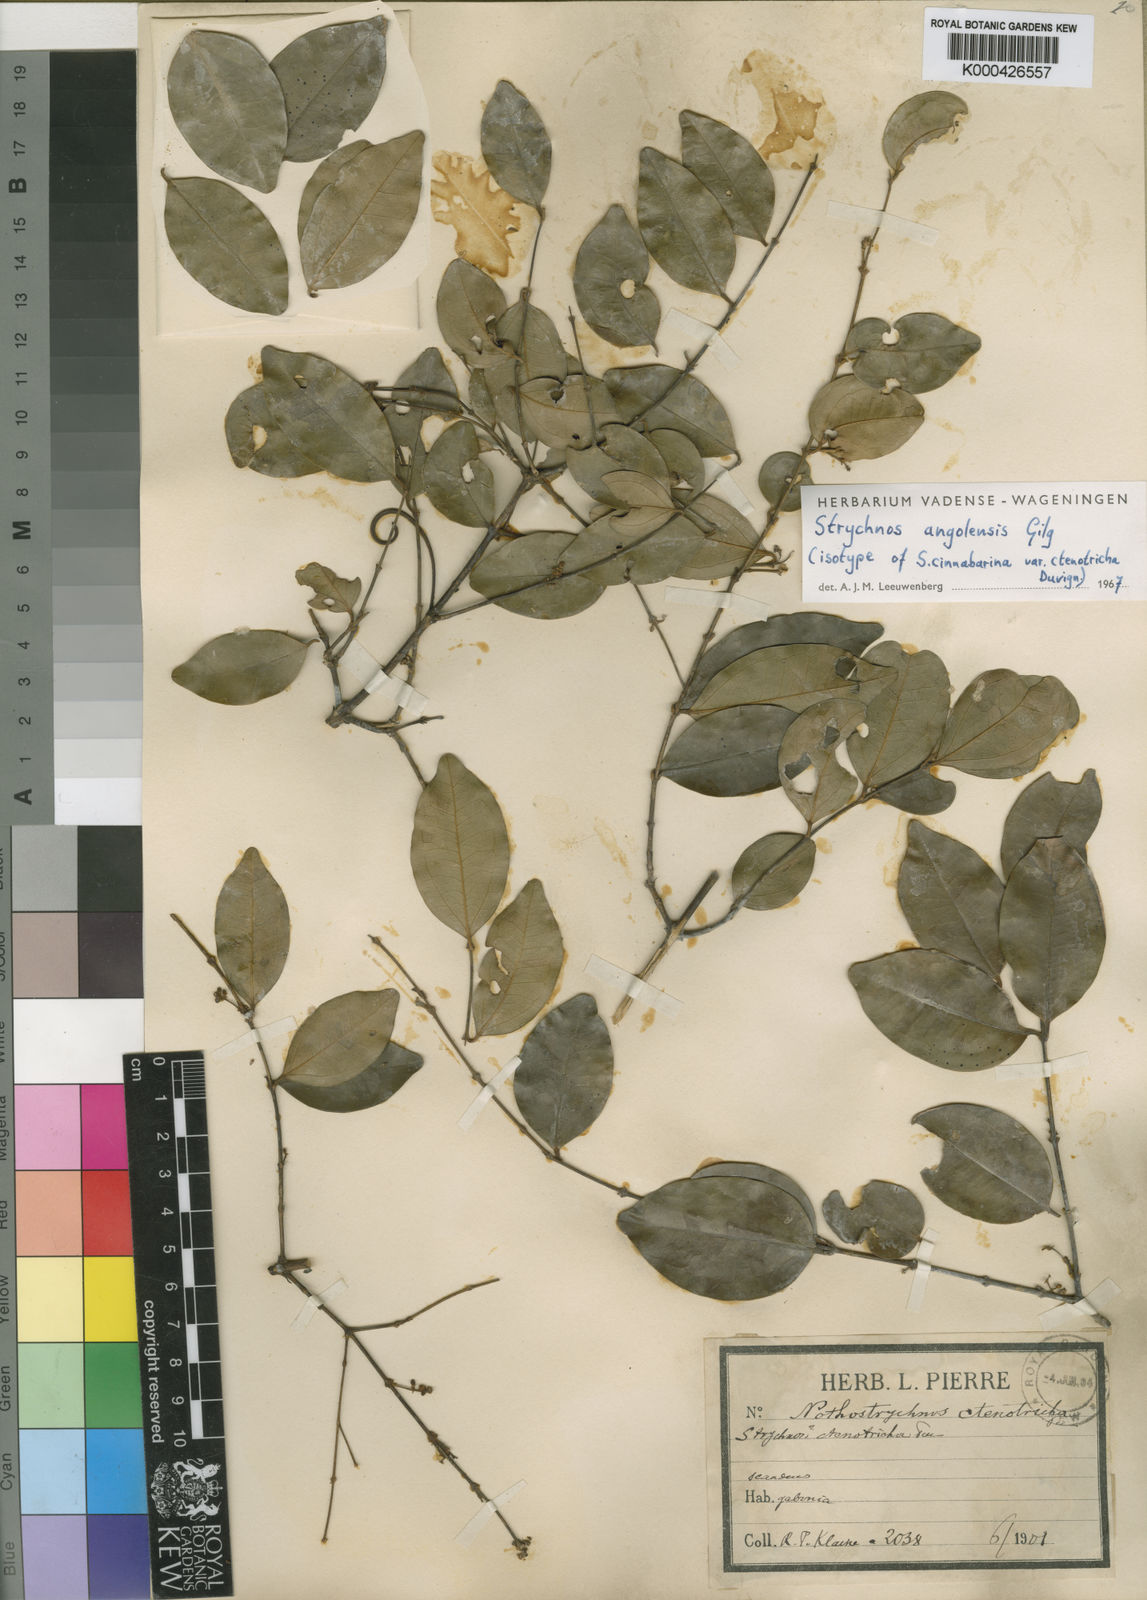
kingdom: Plantae
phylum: Tracheophyta
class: Magnoliopsida
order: Gentianales
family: Loganiaceae
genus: Strychnos
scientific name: Strychnos angolensis
